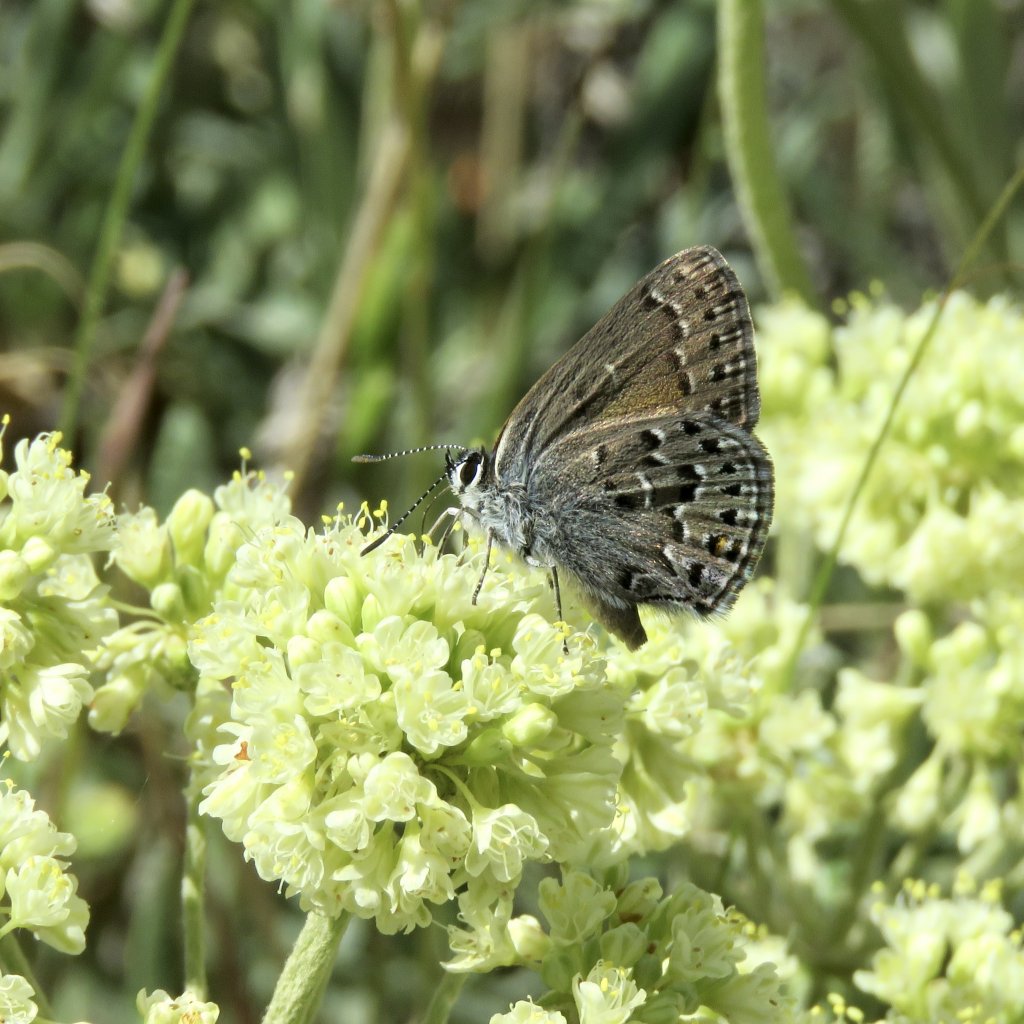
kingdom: Animalia
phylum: Arthropoda
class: Insecta
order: Lepidoptera
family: Lycaenidae
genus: Satyrium
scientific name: Satyrium behrii
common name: Behr's Hairstreak
